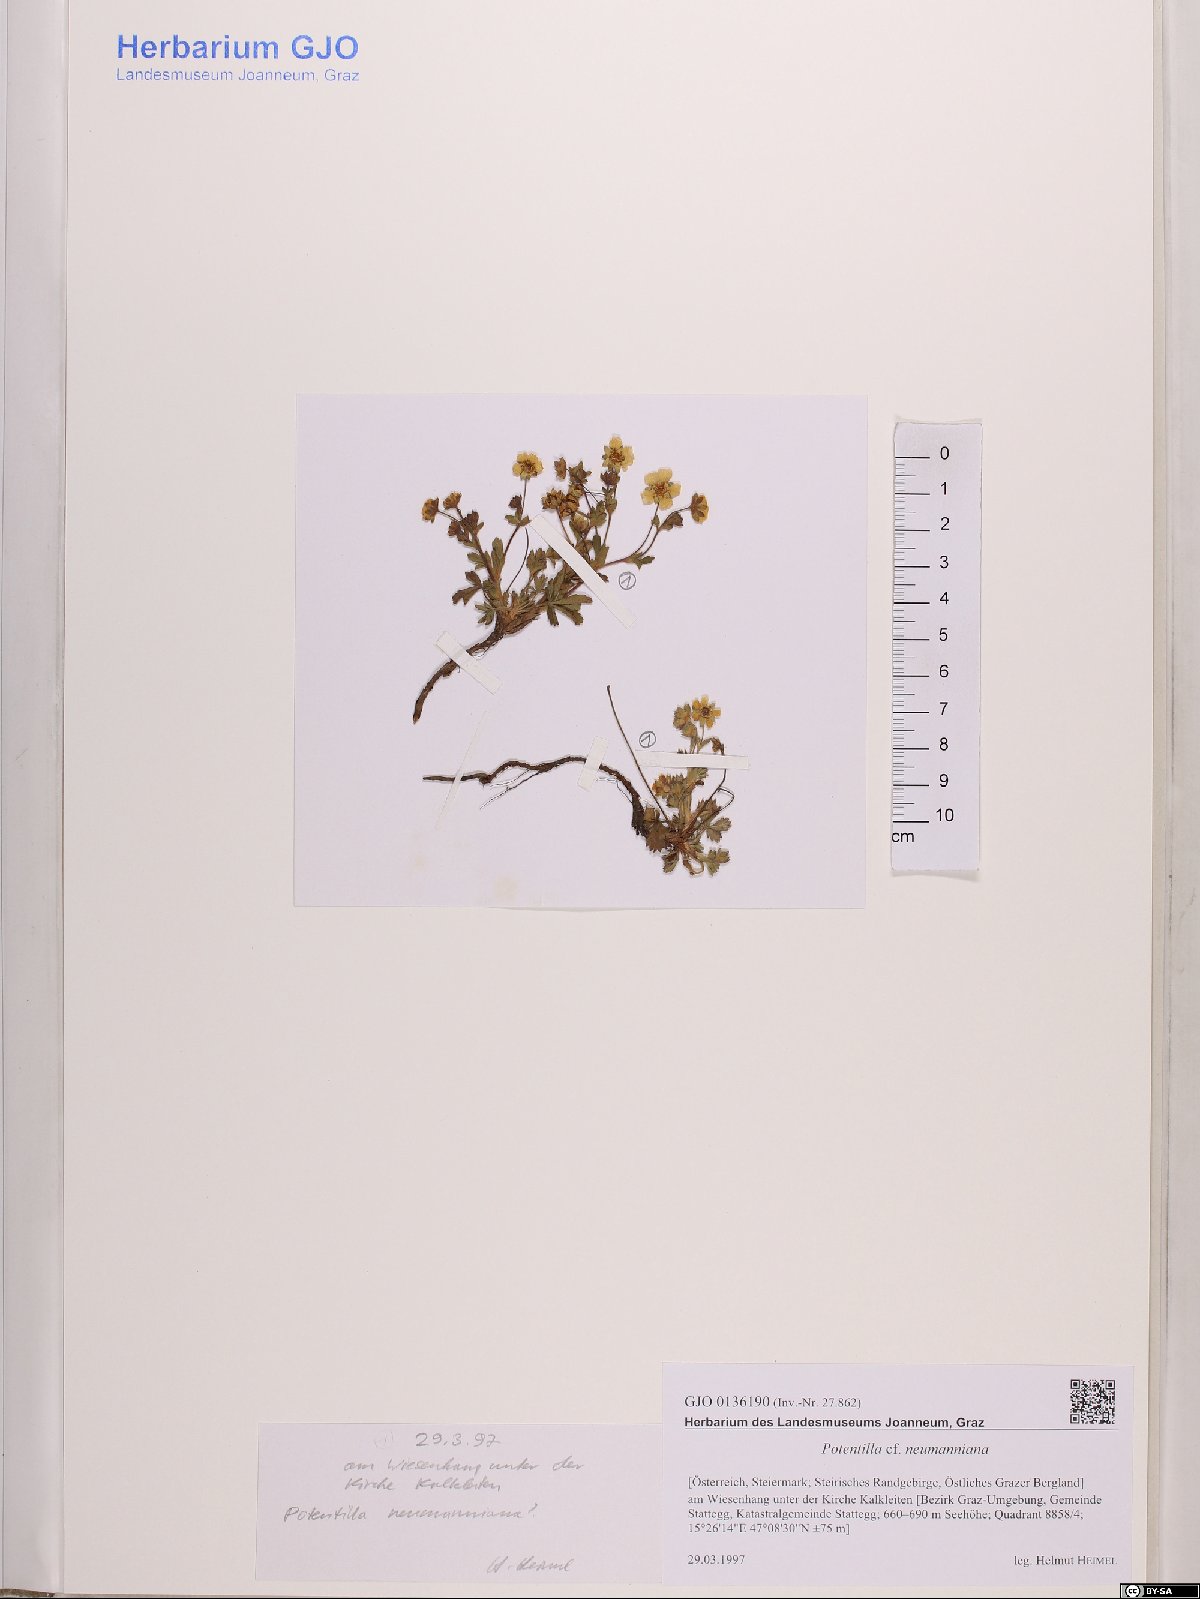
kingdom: Plantae
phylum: Tracheophyta
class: Magnoliopsida
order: Rosales
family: Rosaceae
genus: Potentilla
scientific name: Potentilla verna
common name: Spring cinquefoil
